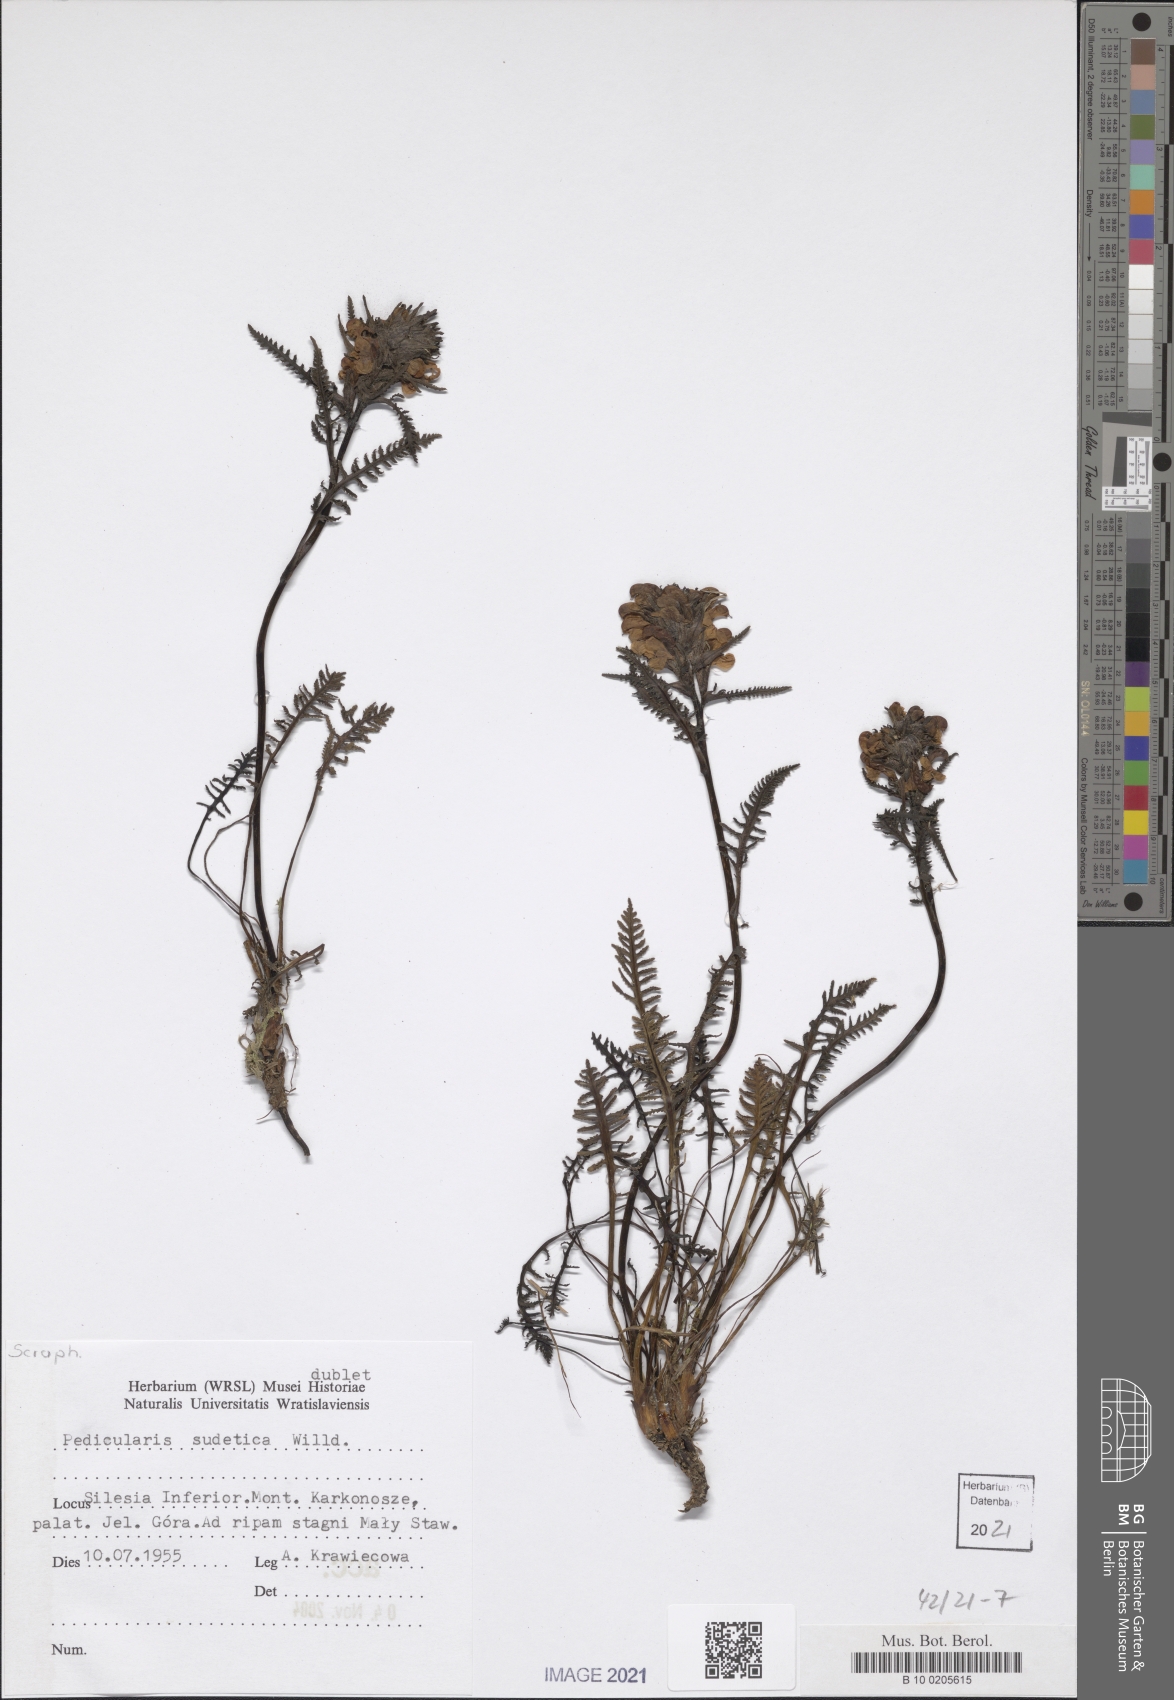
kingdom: Plantae
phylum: Tracheophyta
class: Magnoliopsida
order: Lamiales
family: Orobanchaceae
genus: Pedicularis
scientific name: Pedicularis sudetica
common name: Sudeten lousewort
